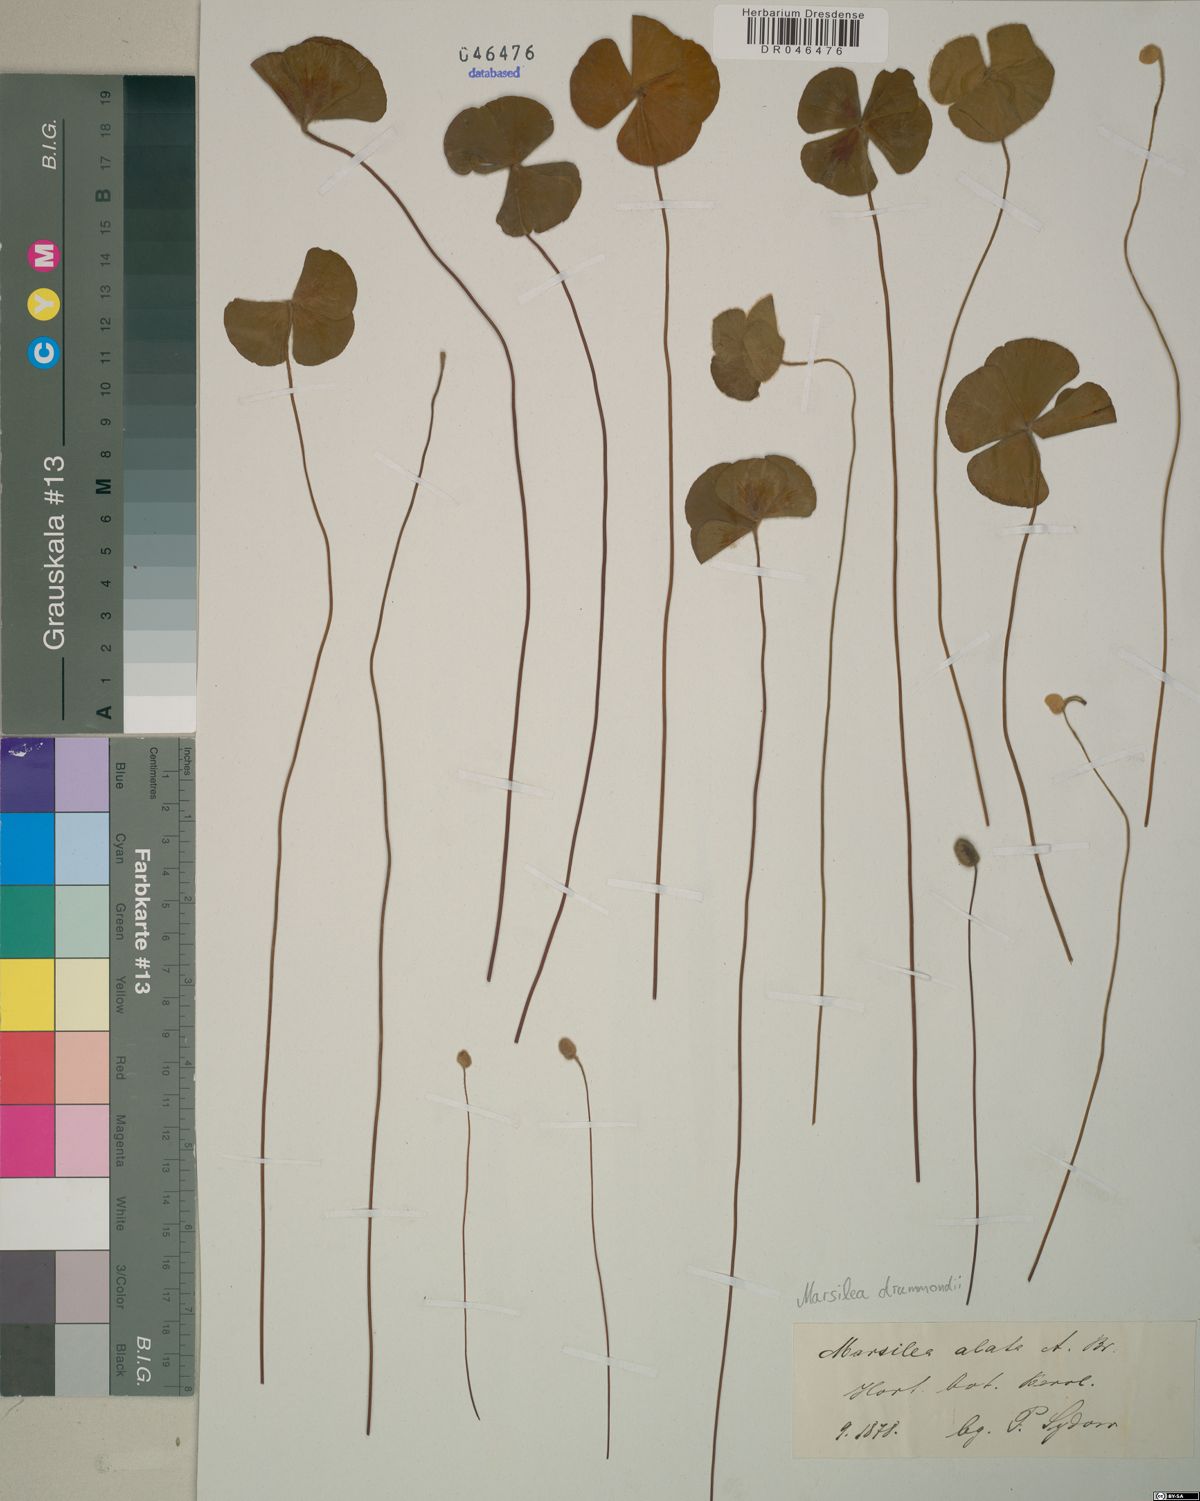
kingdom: Plantae
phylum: Tracheophyta
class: Polypodiopsida
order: Salviniales
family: Marsileaceae
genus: Marsilea
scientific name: Marsilea drummondii
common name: Nardoo
